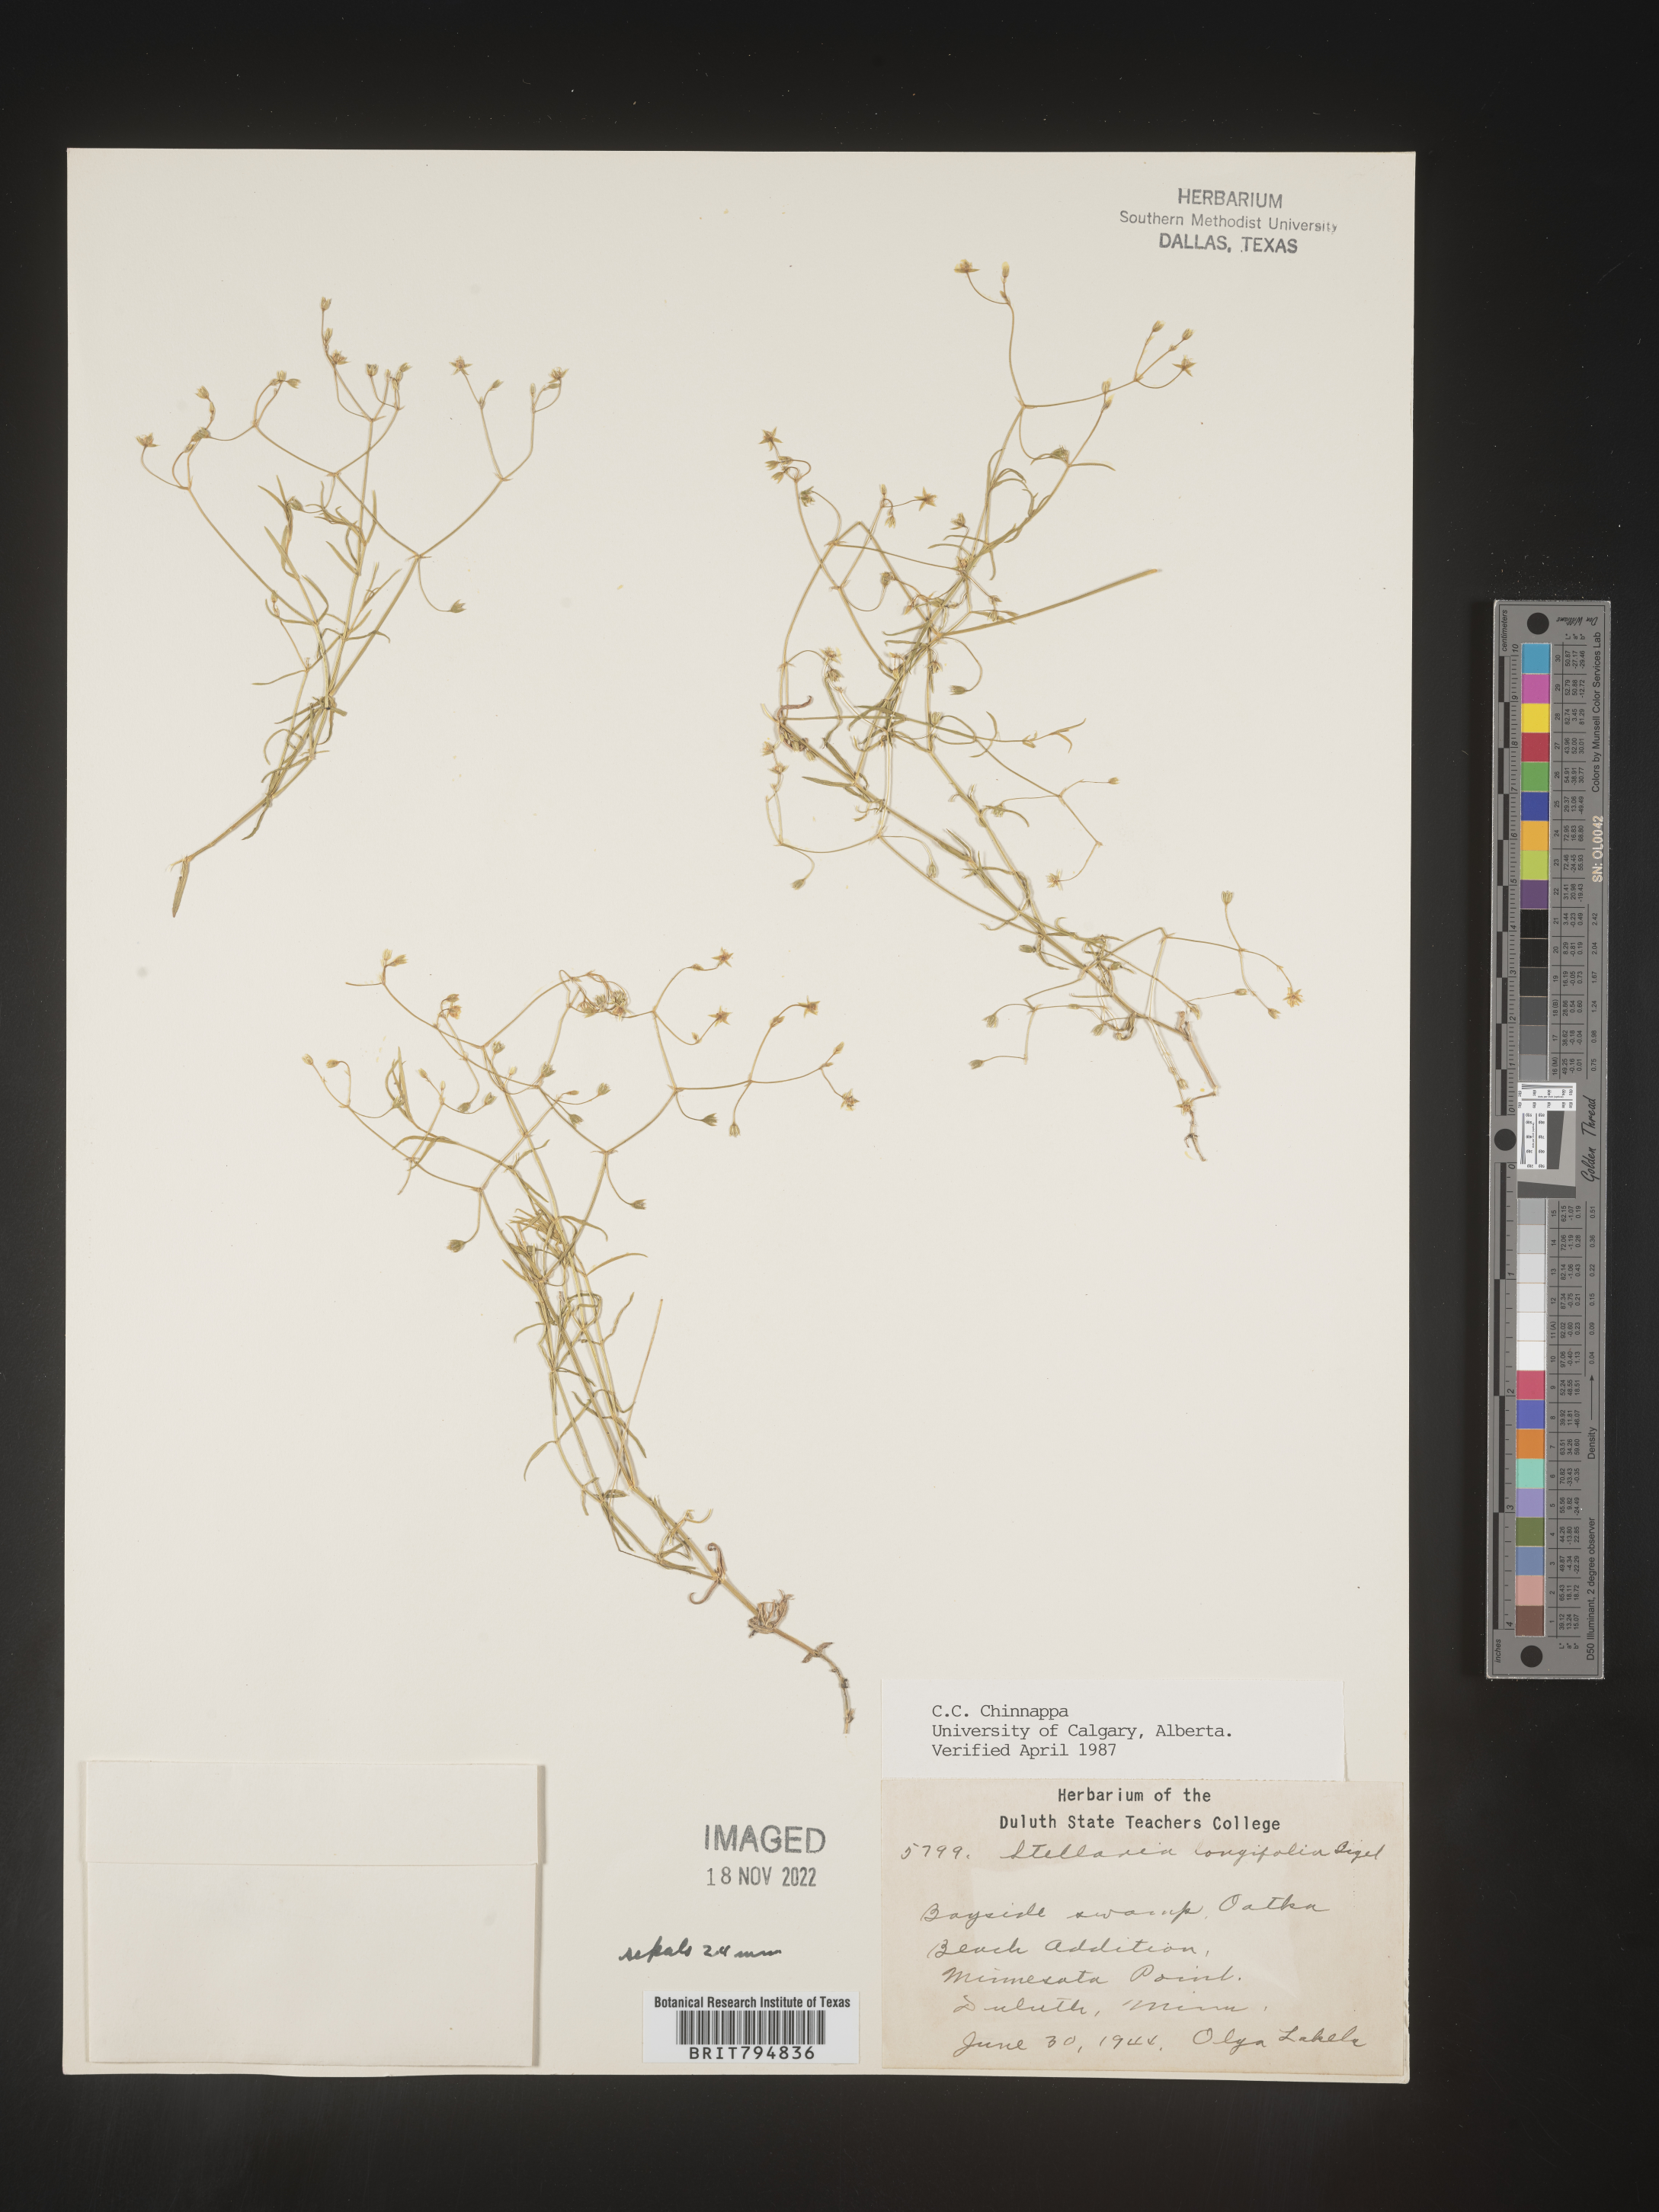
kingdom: Plantae
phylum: Tracheophyta
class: Magnoliopsida
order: Caryophyllales
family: Caryophyllaceae
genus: Stellaria
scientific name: Stellaria longifolia
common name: Long-leaved chickweed
